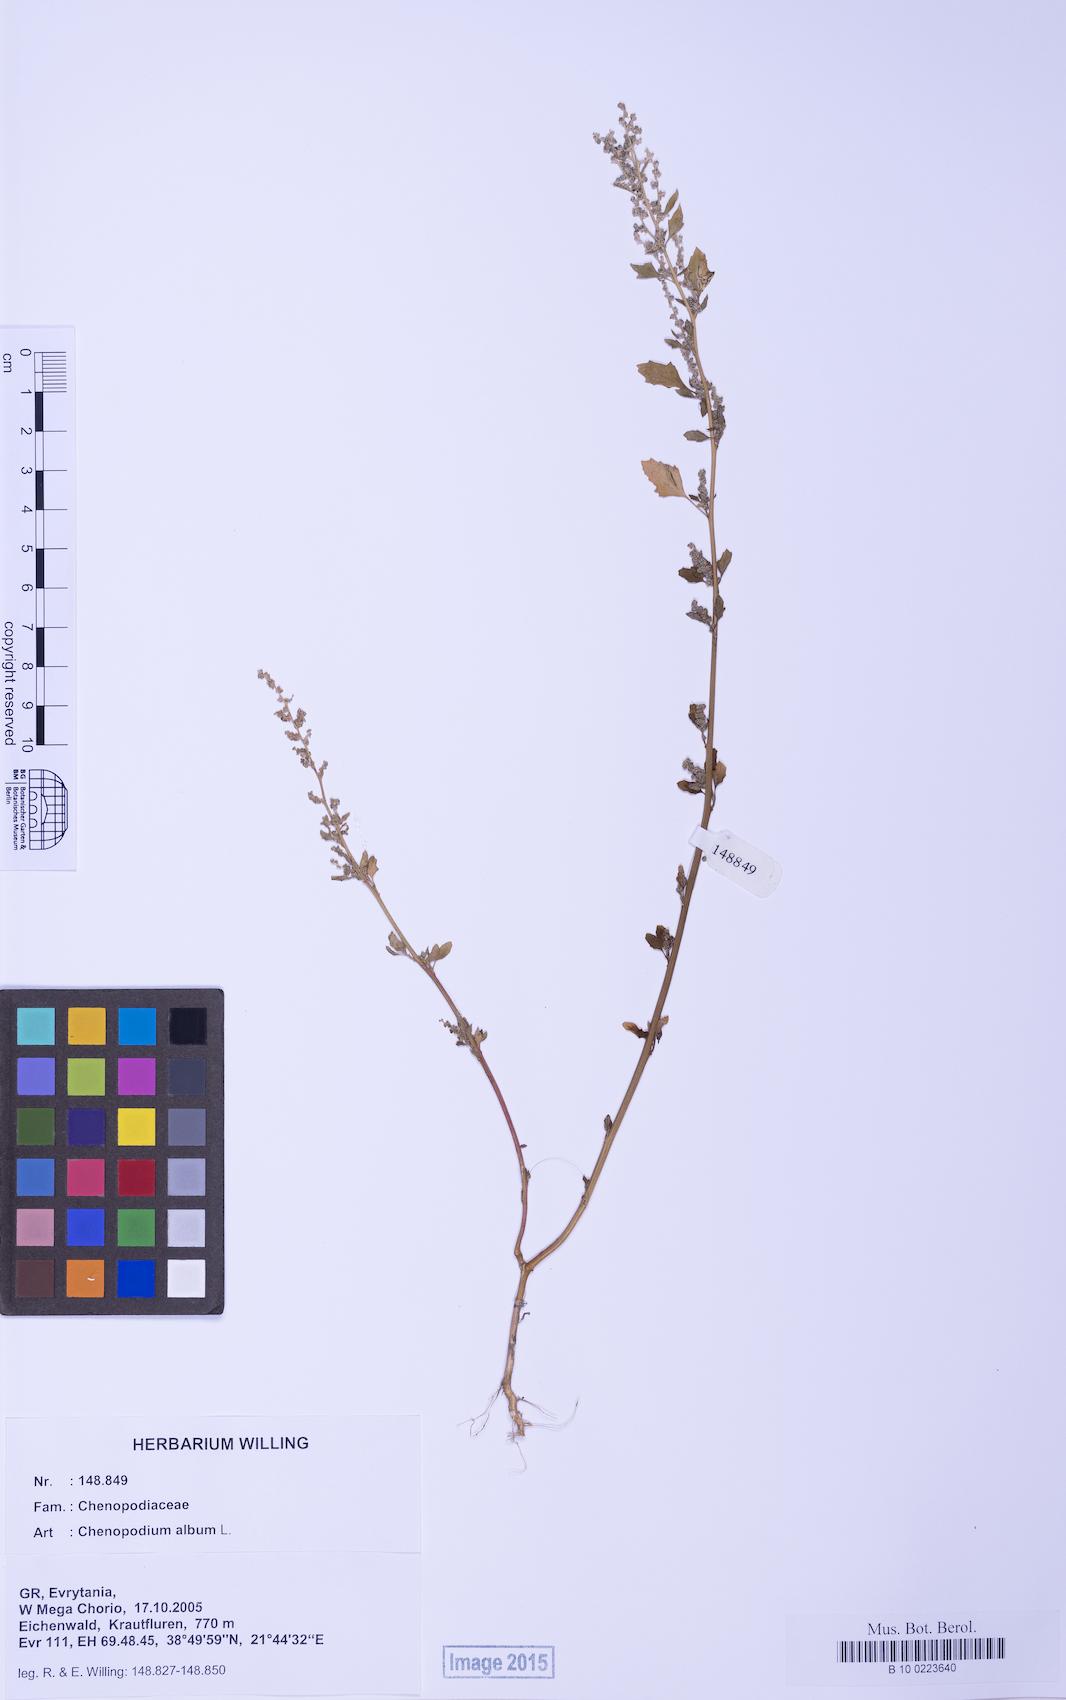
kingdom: Plantae
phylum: Tracheophyta
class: Magnoliopsida
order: Caryophyllales
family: Amaranthaceae
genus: Chenopodium
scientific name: Chenopodium album
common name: Fat-hen
